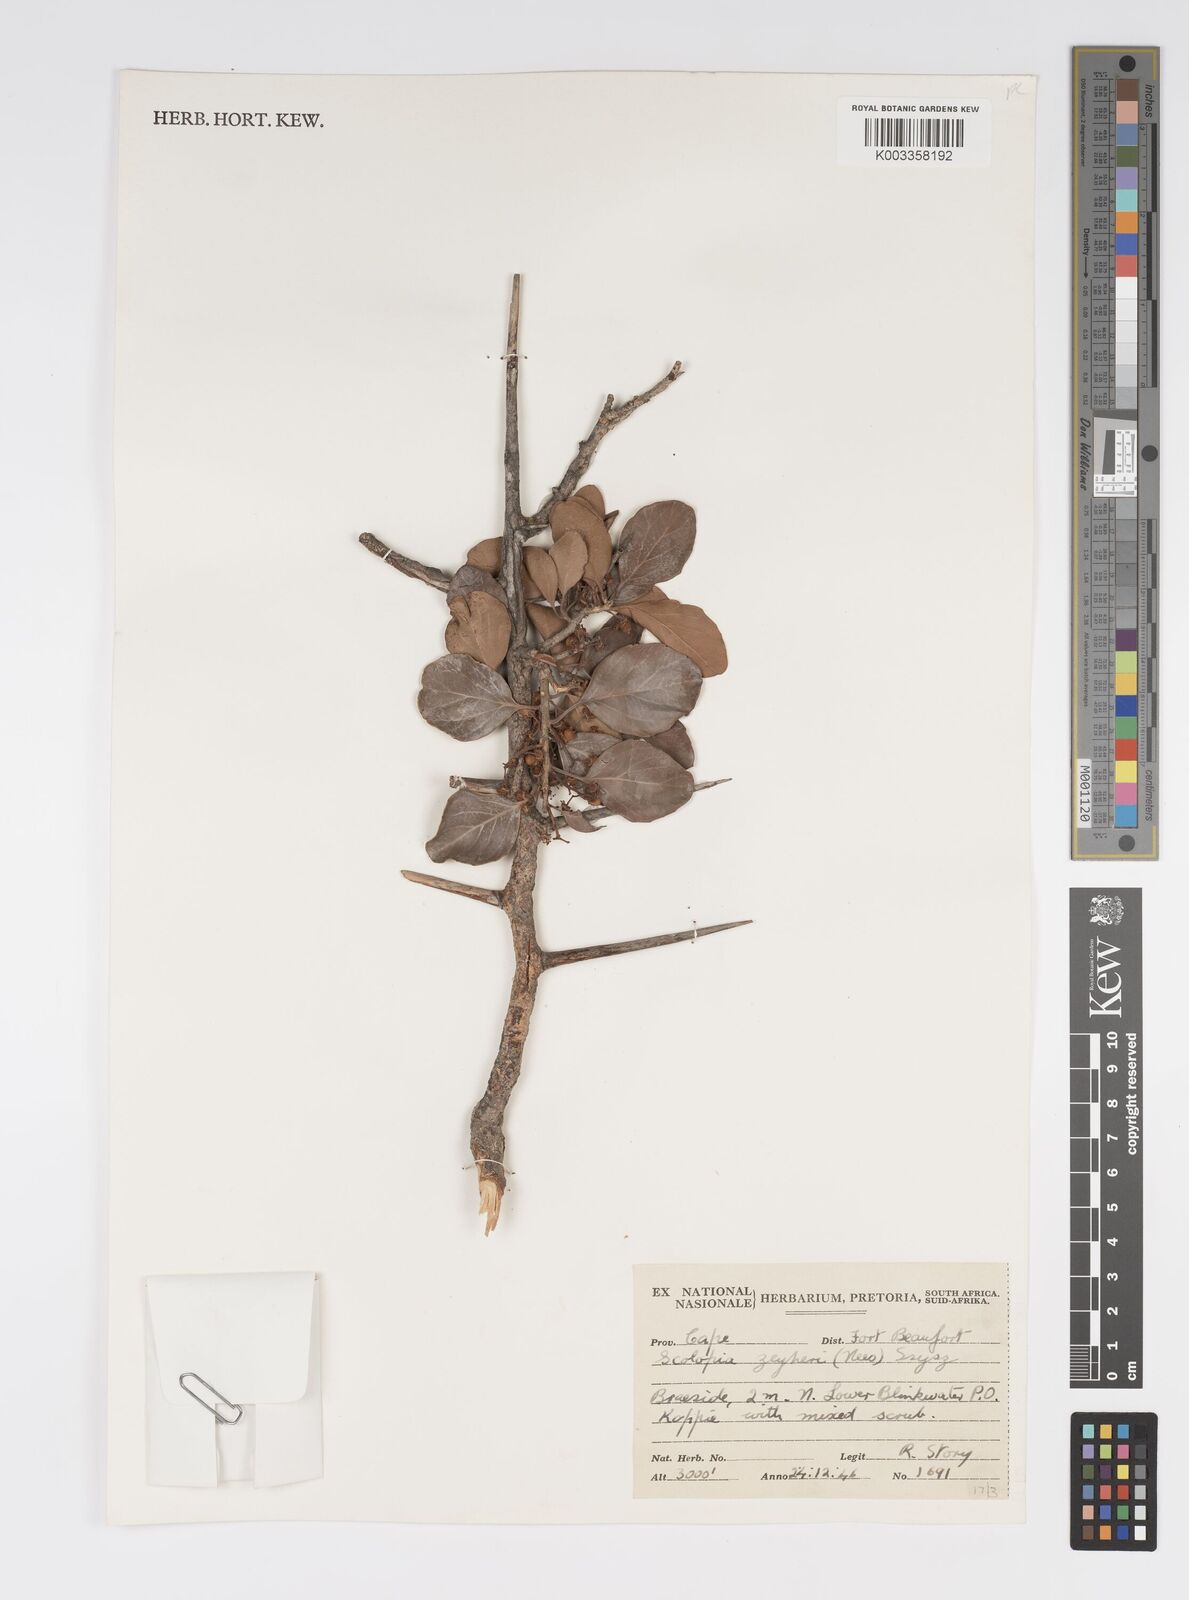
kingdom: Plantae
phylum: Tracheophyta
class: Magnoliopsida
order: Malpighiales
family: Salicaceae
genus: Scolopia
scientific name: Scolopia zeyheri
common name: Thorn pear
